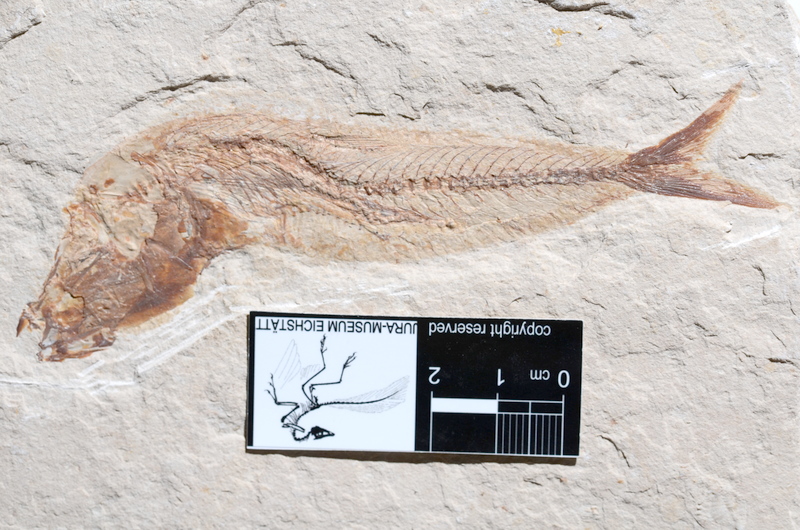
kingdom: Animalia
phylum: Chordata
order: Aulopiformes
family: Halecidae
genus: Phylactocephalus
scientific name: Phylactocephalus microlepis
